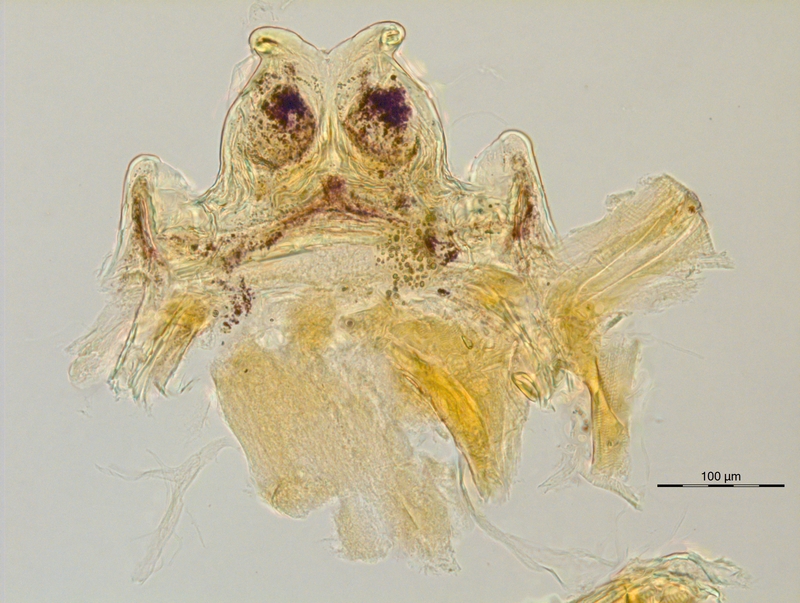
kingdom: Animalia
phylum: Arthropoda
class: Diplopoda
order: Chordeumatida
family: Craspedosomatidae
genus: Ochogona
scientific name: Ochogona brentana
